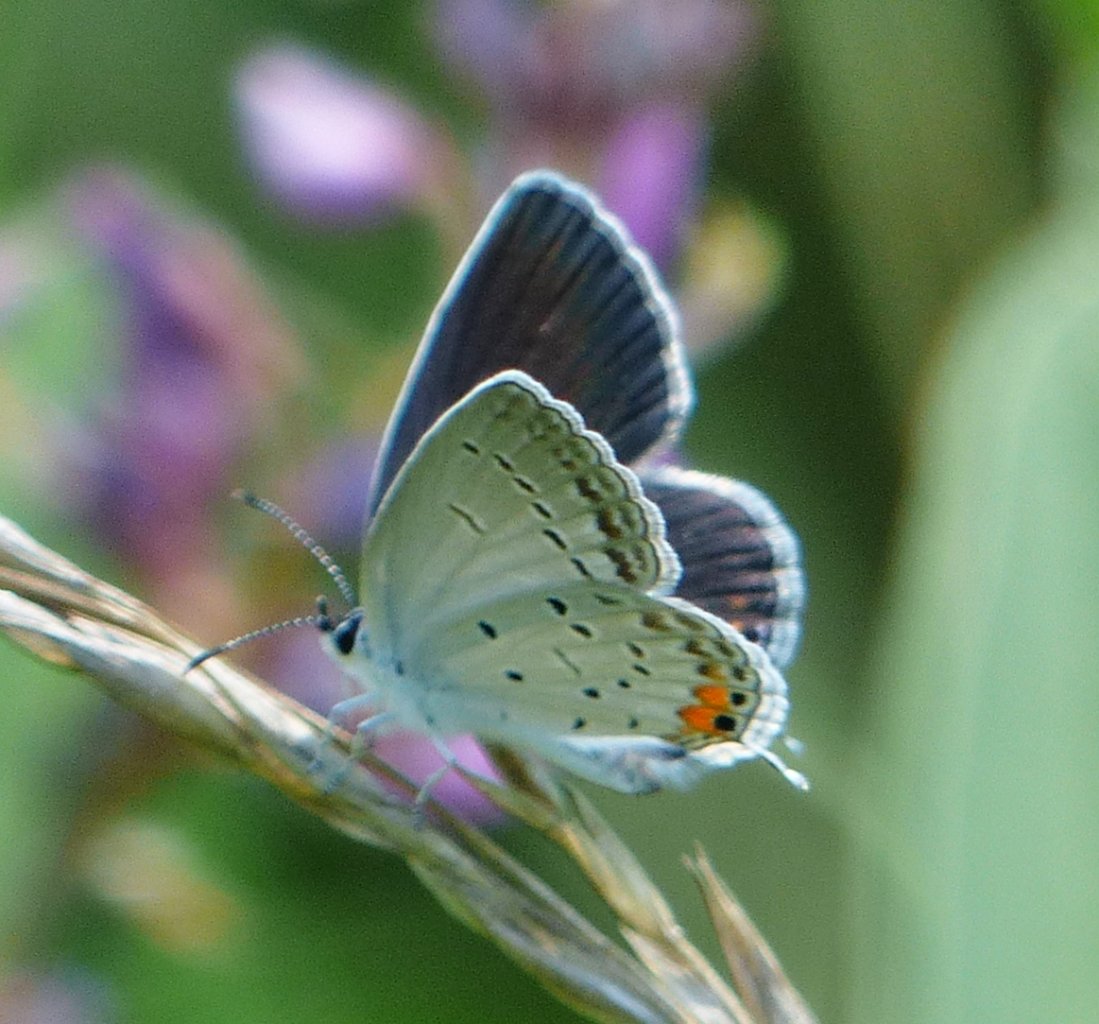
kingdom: Animalia
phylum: Arthropoda
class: Insecta
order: Lepidoptera
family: Lycaenidae
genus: Elkalyce
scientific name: Elkalyce comyntas
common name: Eastern Tailed-Blue
